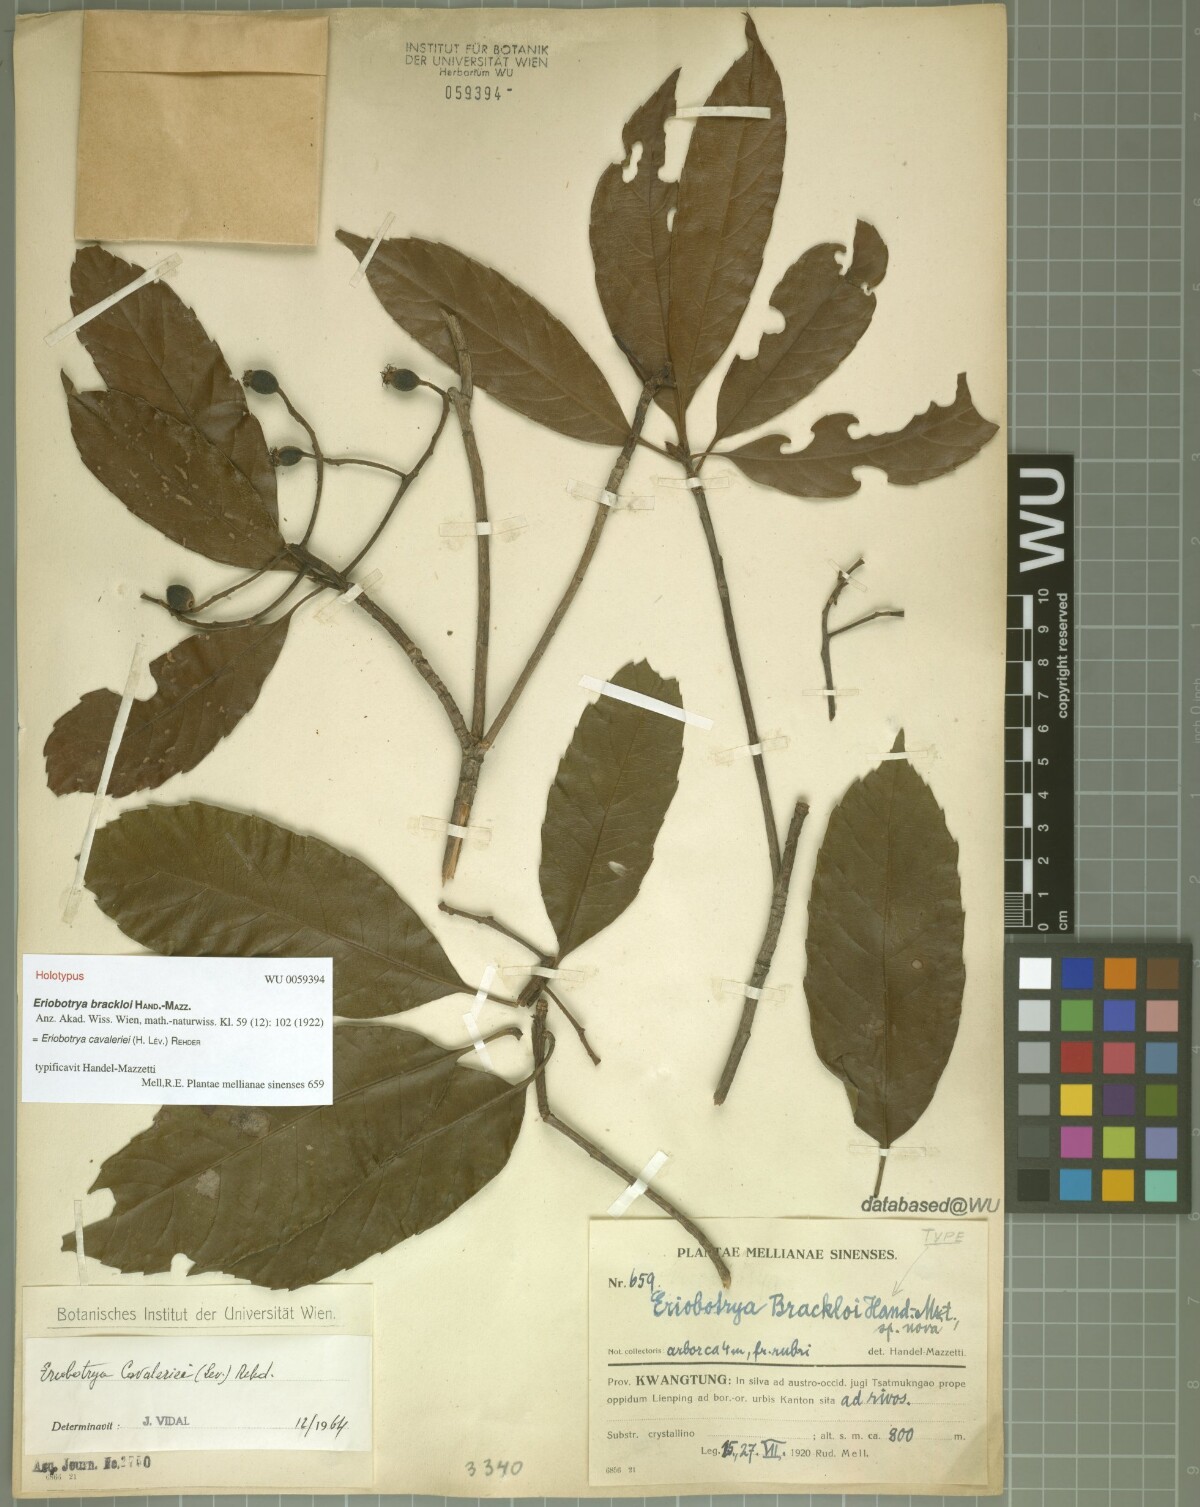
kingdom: Plantae
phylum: Tracheophyta
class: Magnoliopsida
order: Rosales
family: Rosaceae
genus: Rhaphiolepis
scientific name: Rhaphiolepis cavaleriei
